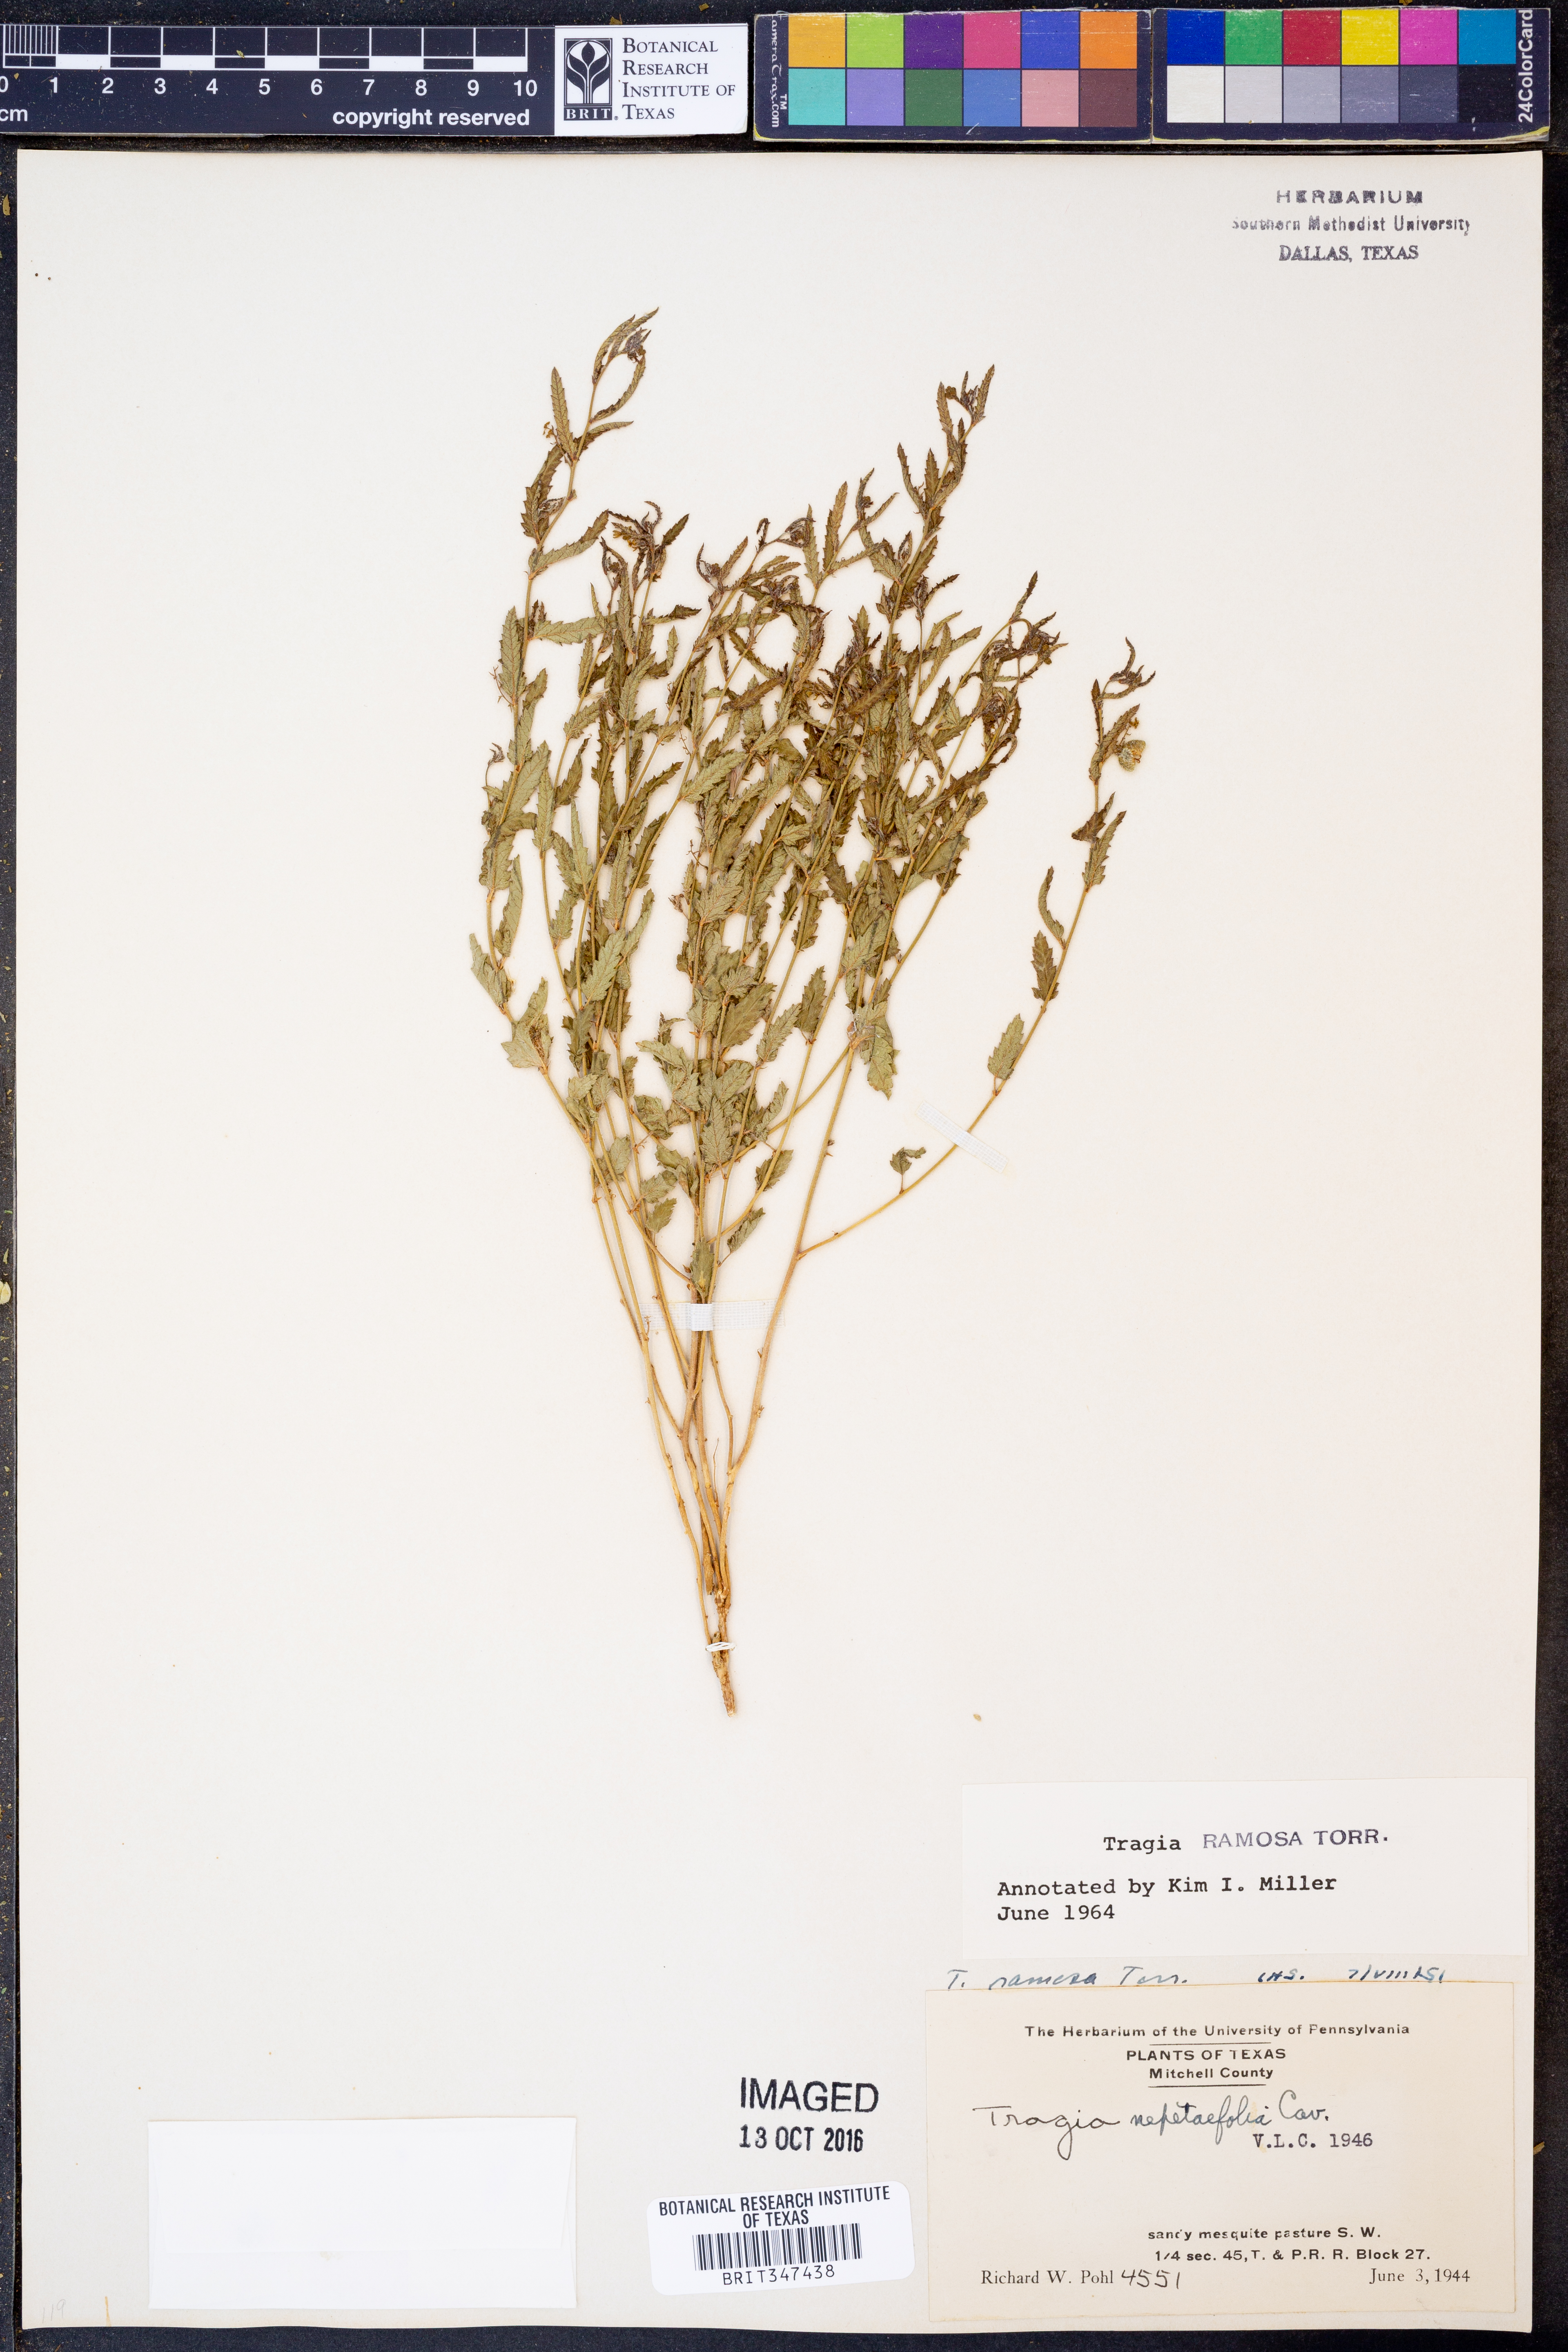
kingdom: Plantae
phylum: Tracheophyta
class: Magnoliopsida
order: Malpighiales
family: Euphorbiaceae
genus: Tragia
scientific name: Tragia ramosa
